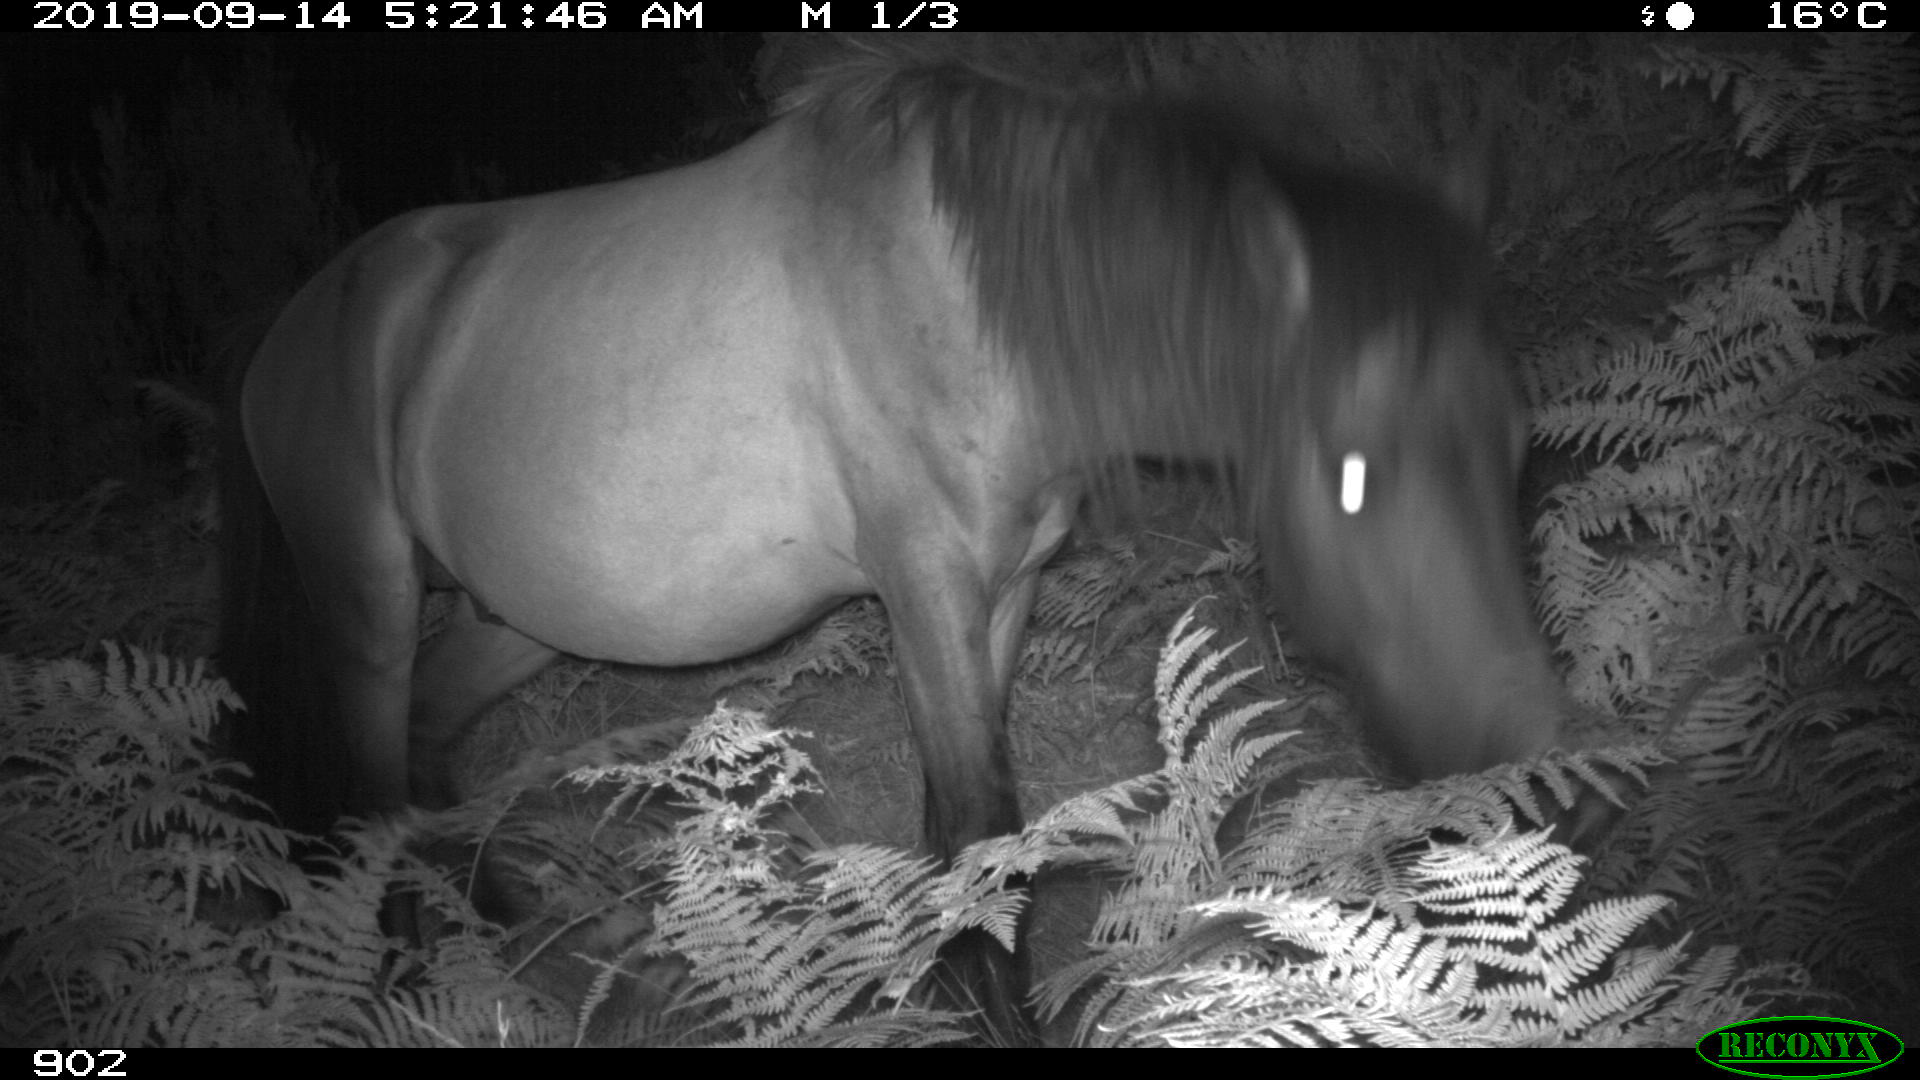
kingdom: Animalia
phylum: Chordata
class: Mammalia
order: Perissodactyla
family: Equidae
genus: Equus
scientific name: Equus caballus
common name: Horse
